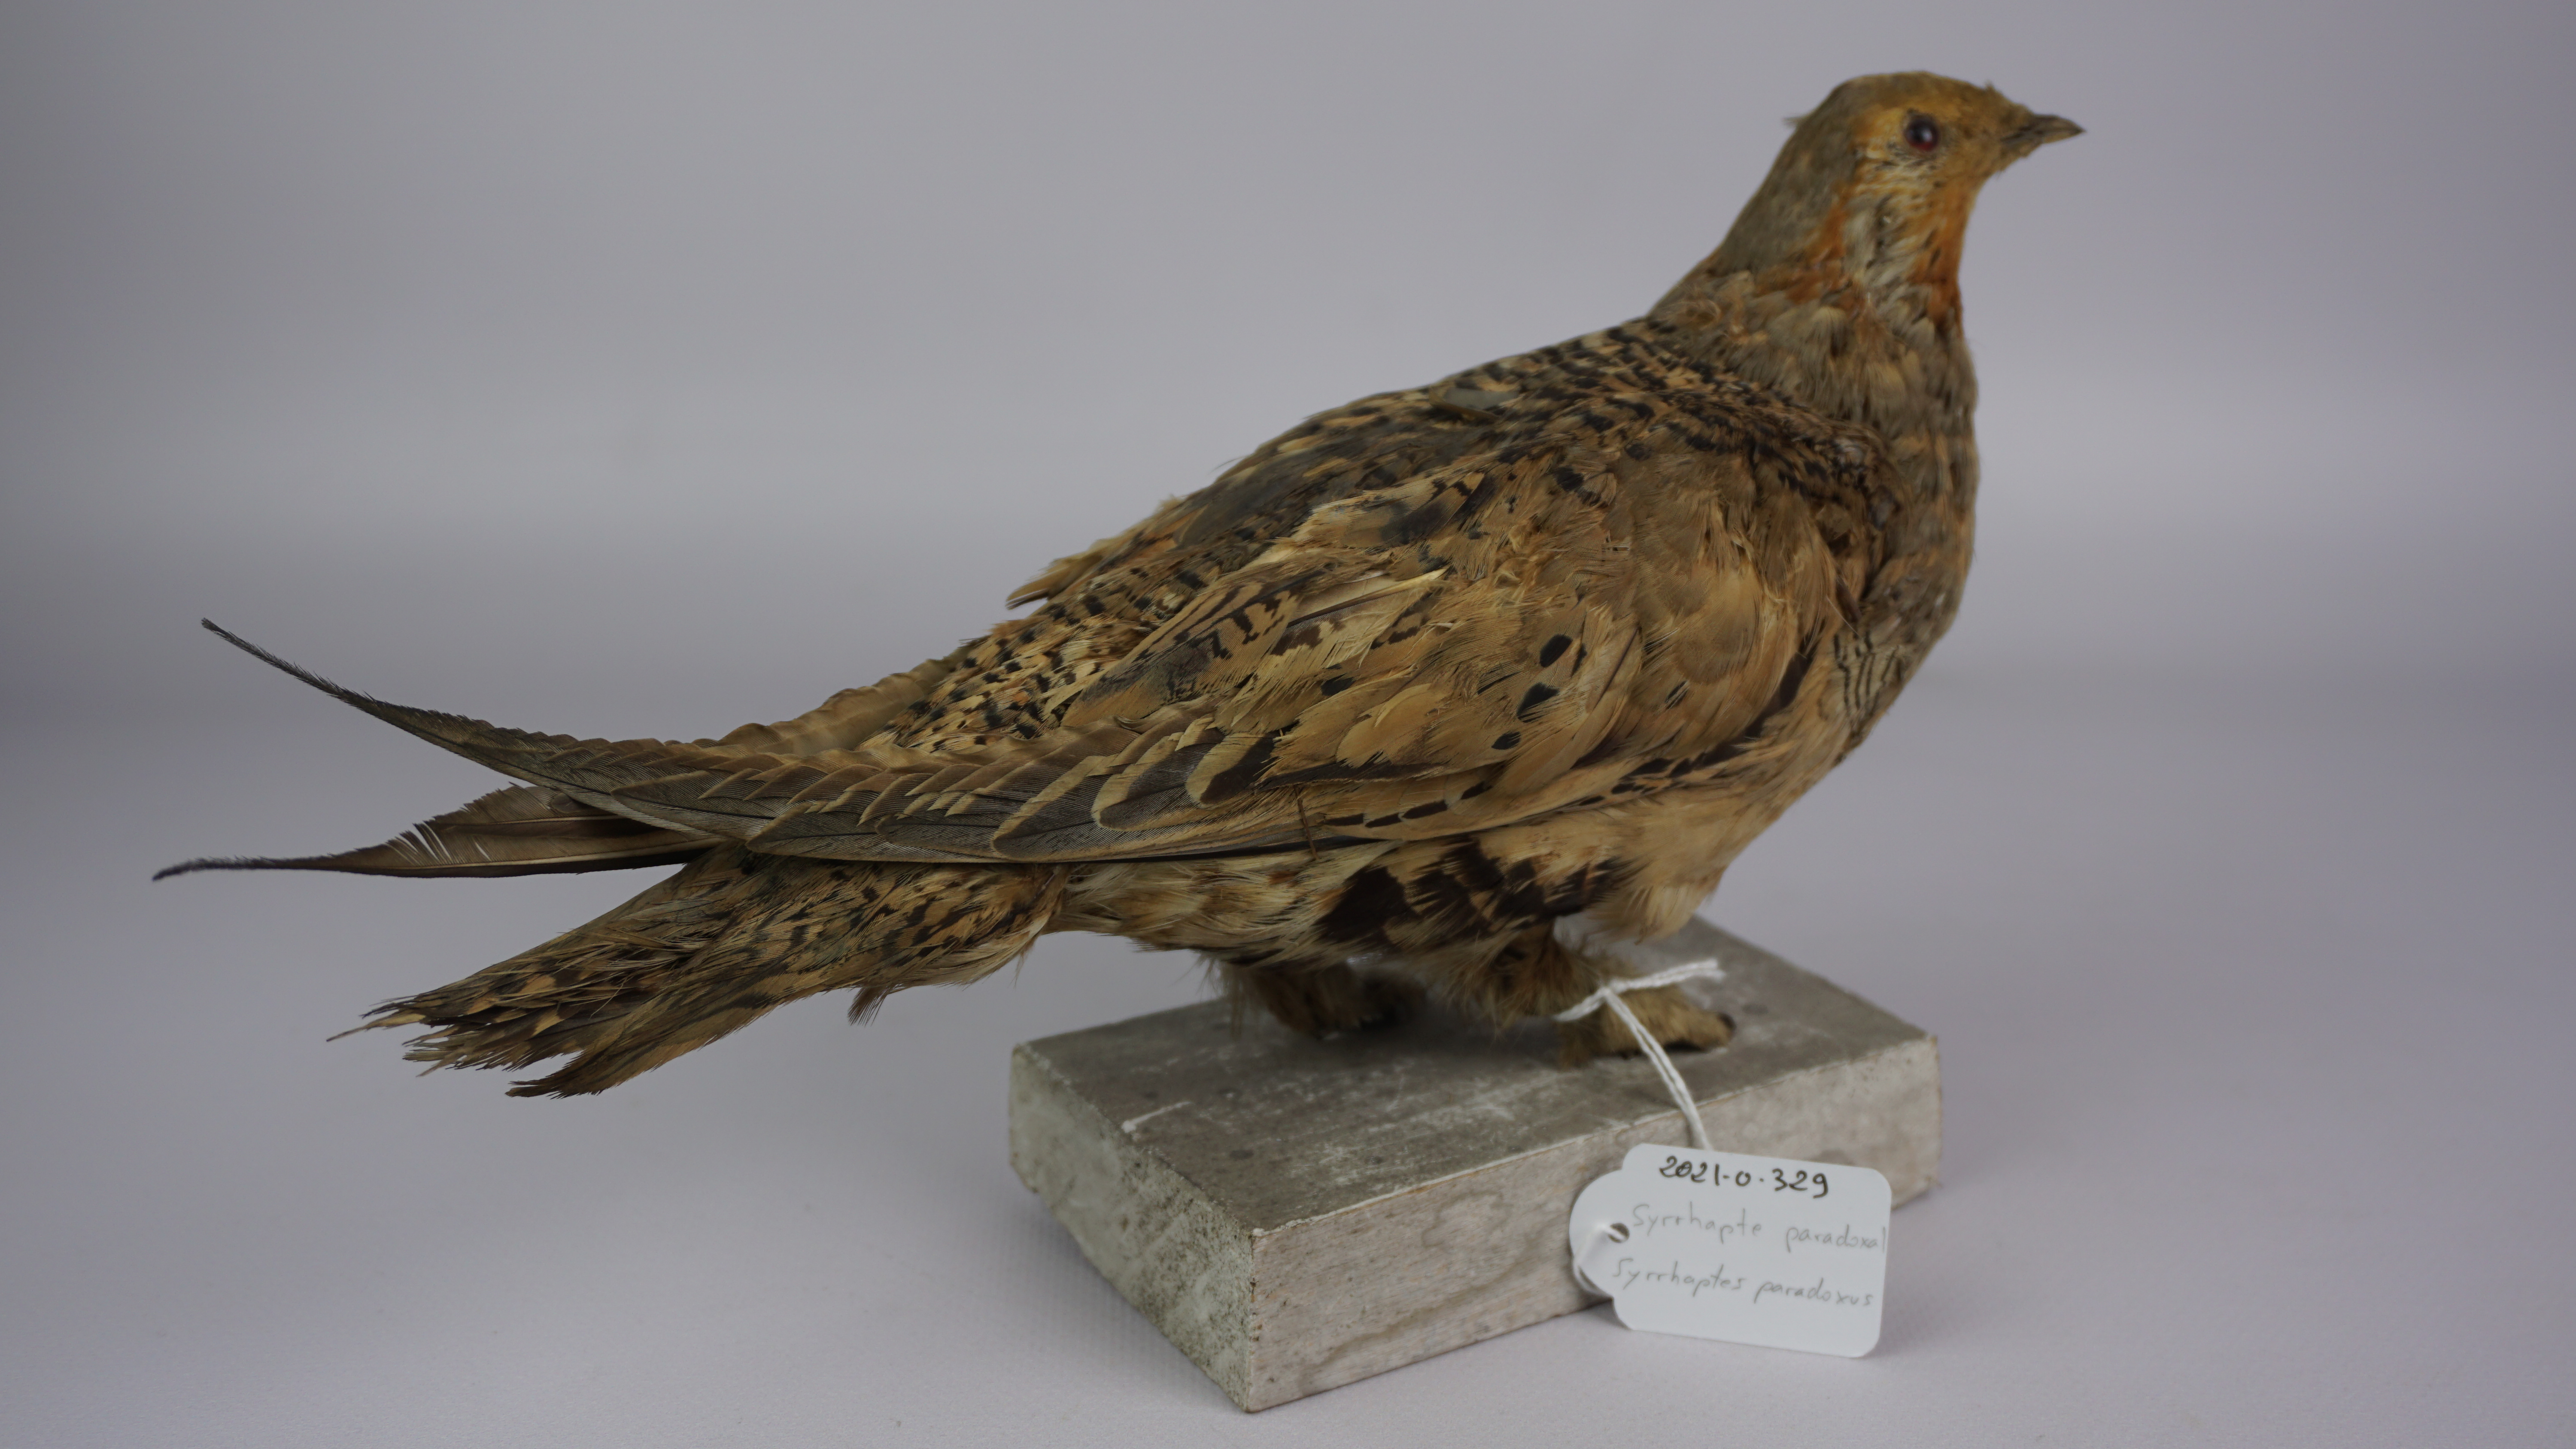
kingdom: Animalia
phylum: Chordata
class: Aves
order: Pteroclidiformes
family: Pteroclididae
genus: Syrrhaptes
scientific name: Syrrhaptes paradoxus
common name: Pallas's sandgrouse
